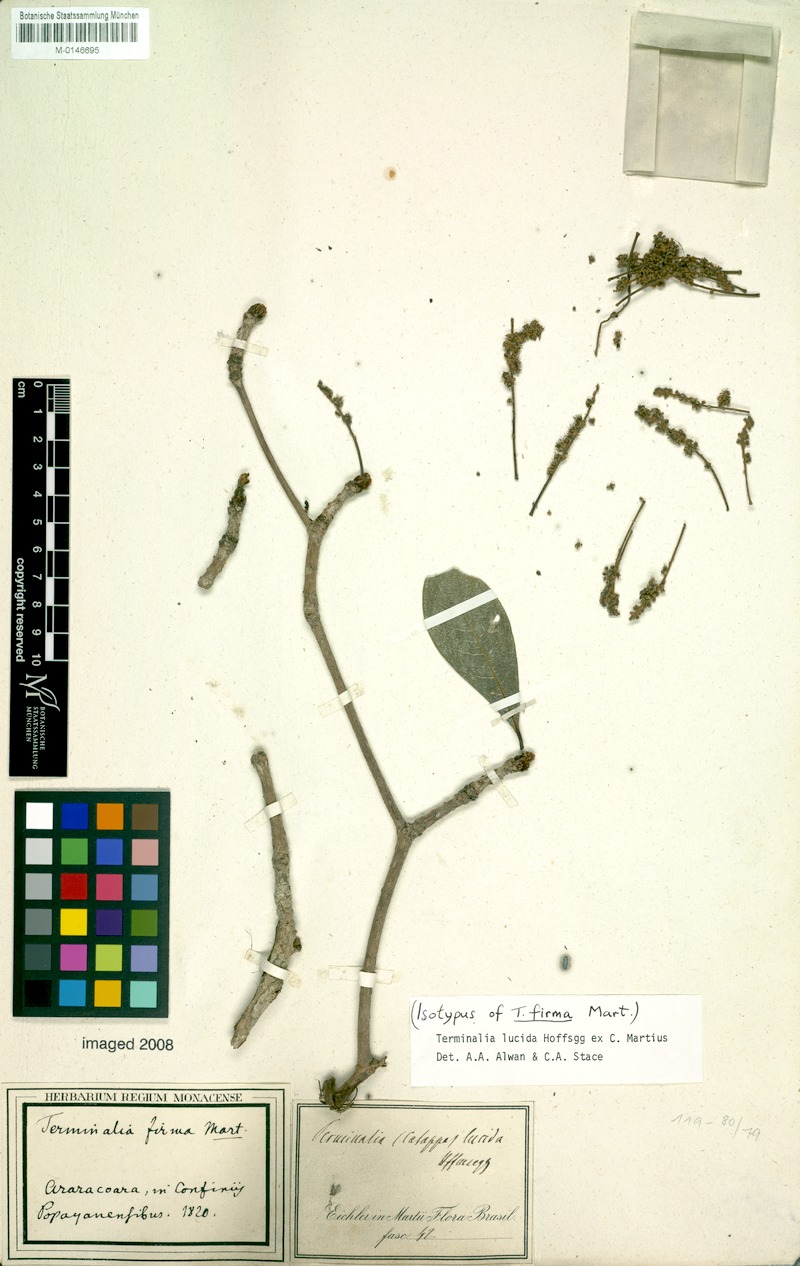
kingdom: Plantae
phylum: Tracheophyta
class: Magnoliopsida
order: Myrtales
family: Combretaceae
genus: Terminalia
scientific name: Terminalia lucida
